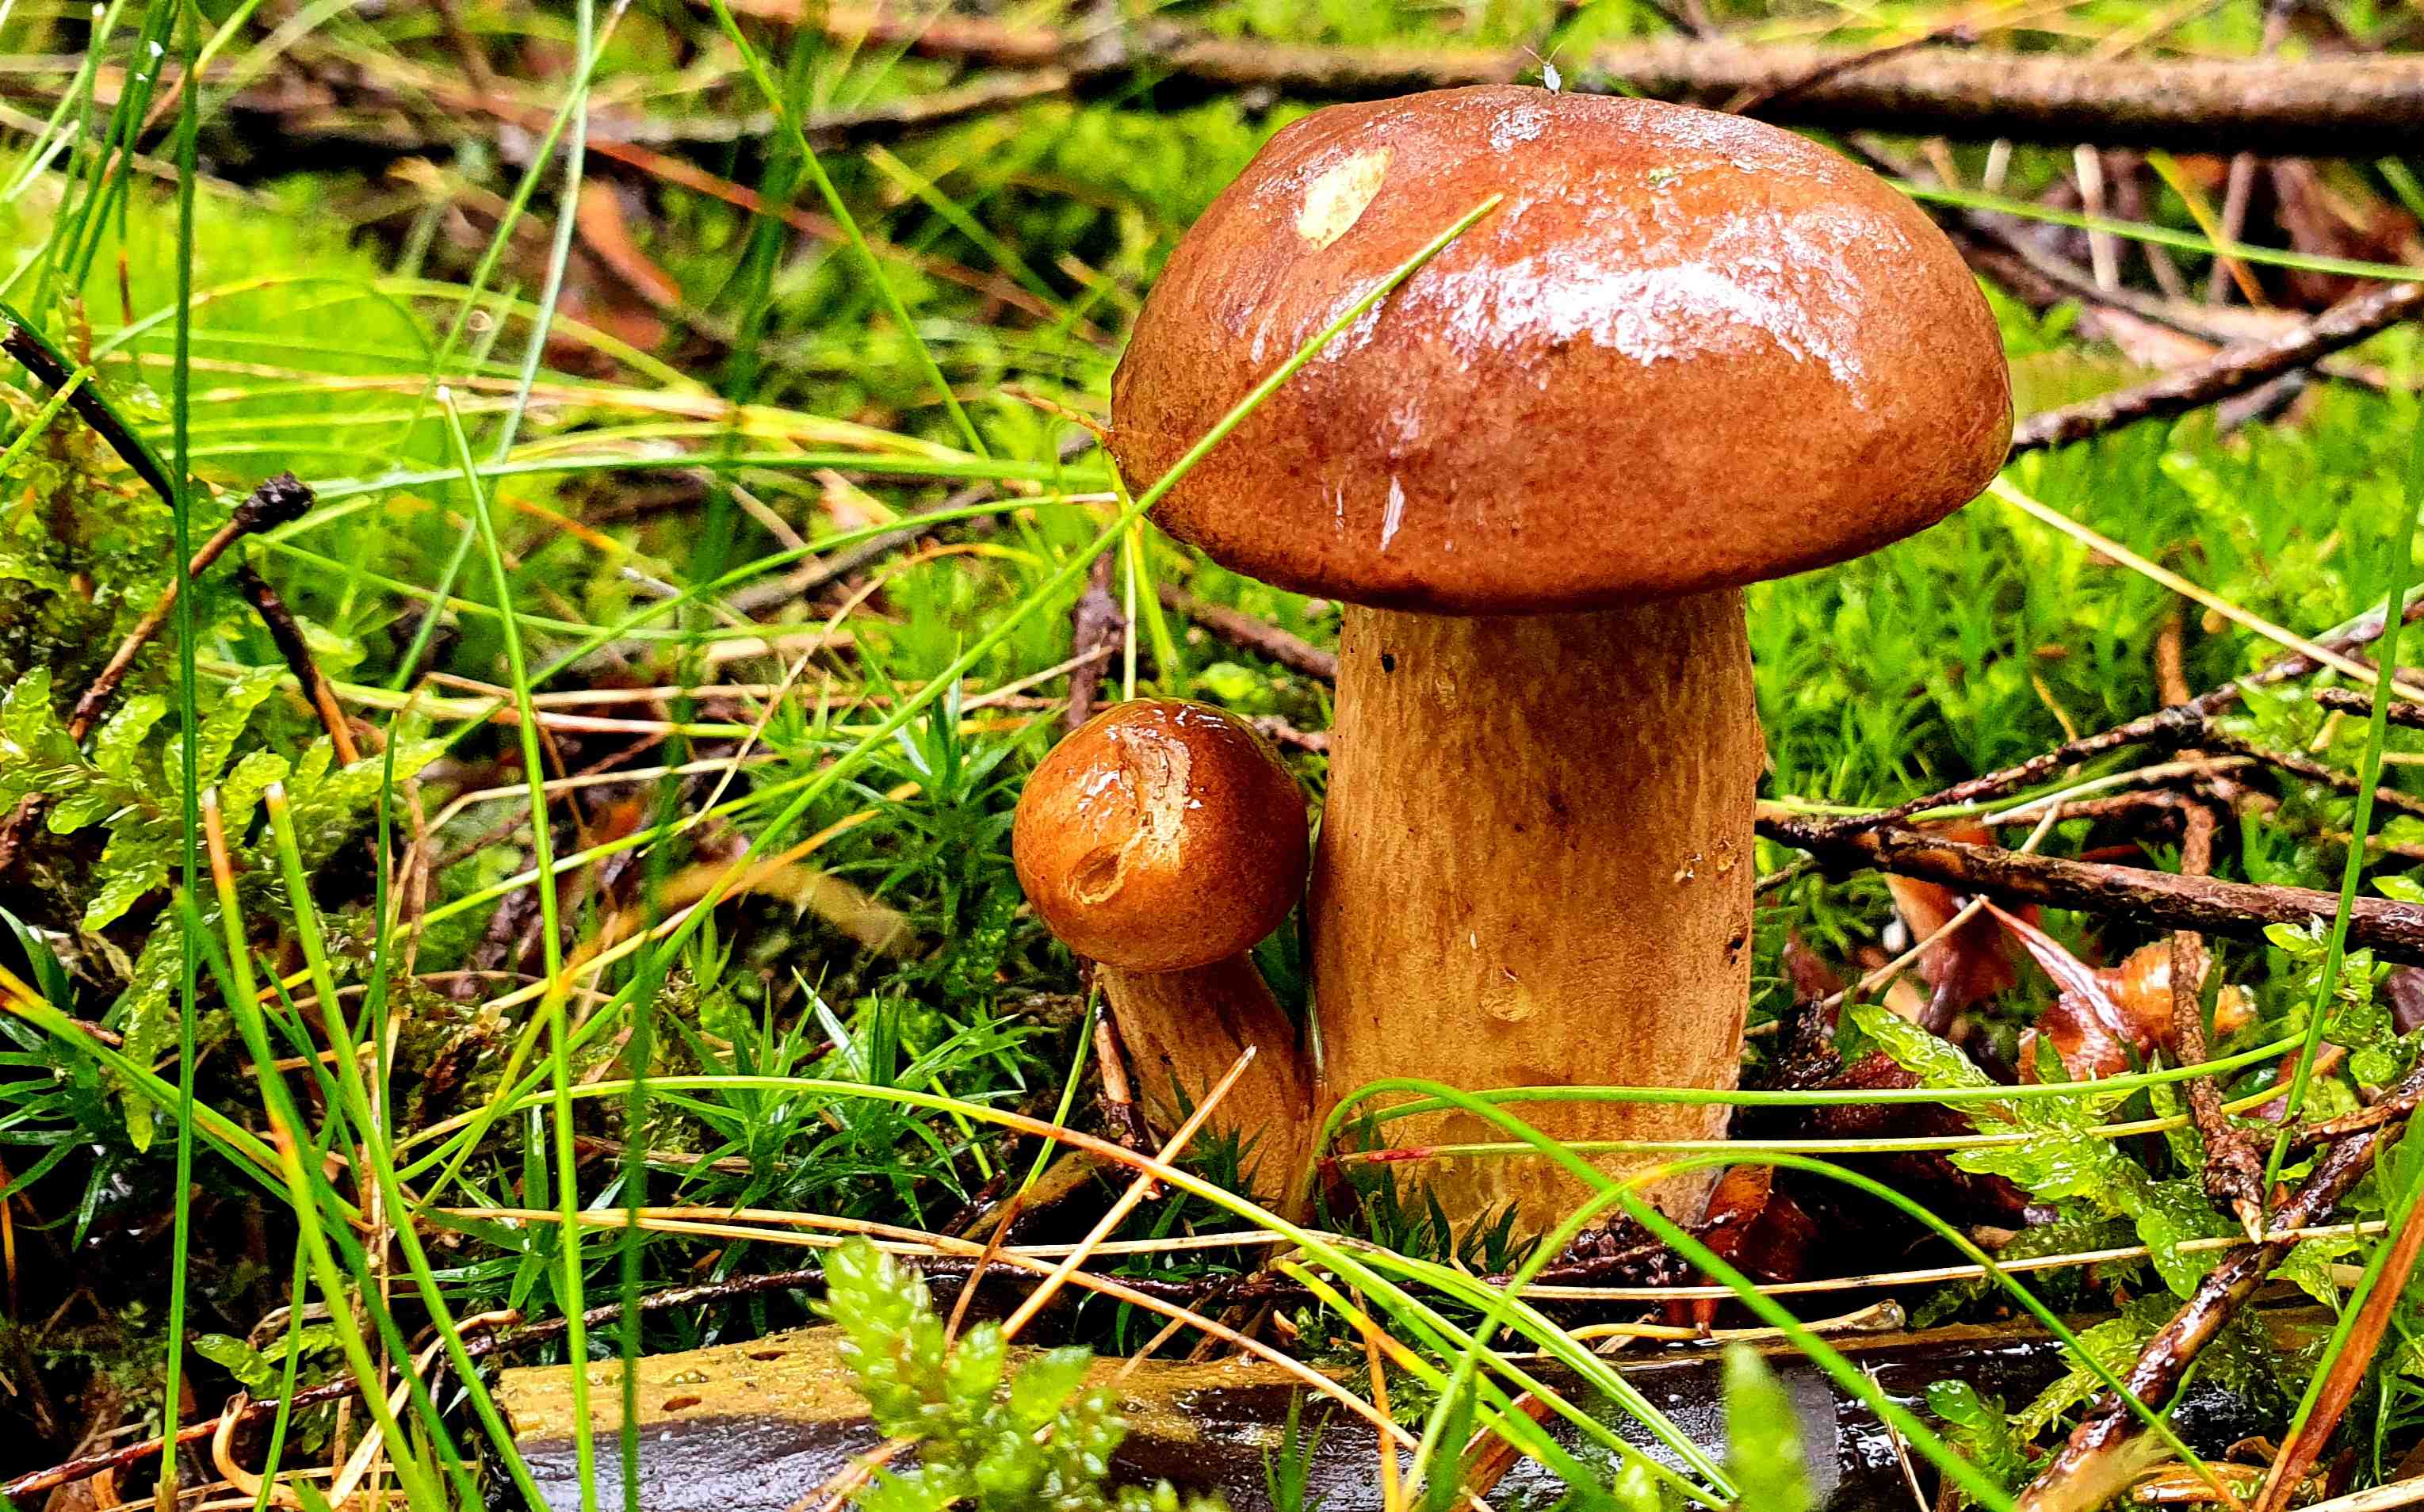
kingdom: Fungi
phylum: Basidiomycota
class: Agaricomycetes
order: Boletales
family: Boletaceae
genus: Imleria
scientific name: Imleria badia
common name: brunstokket rørhat
